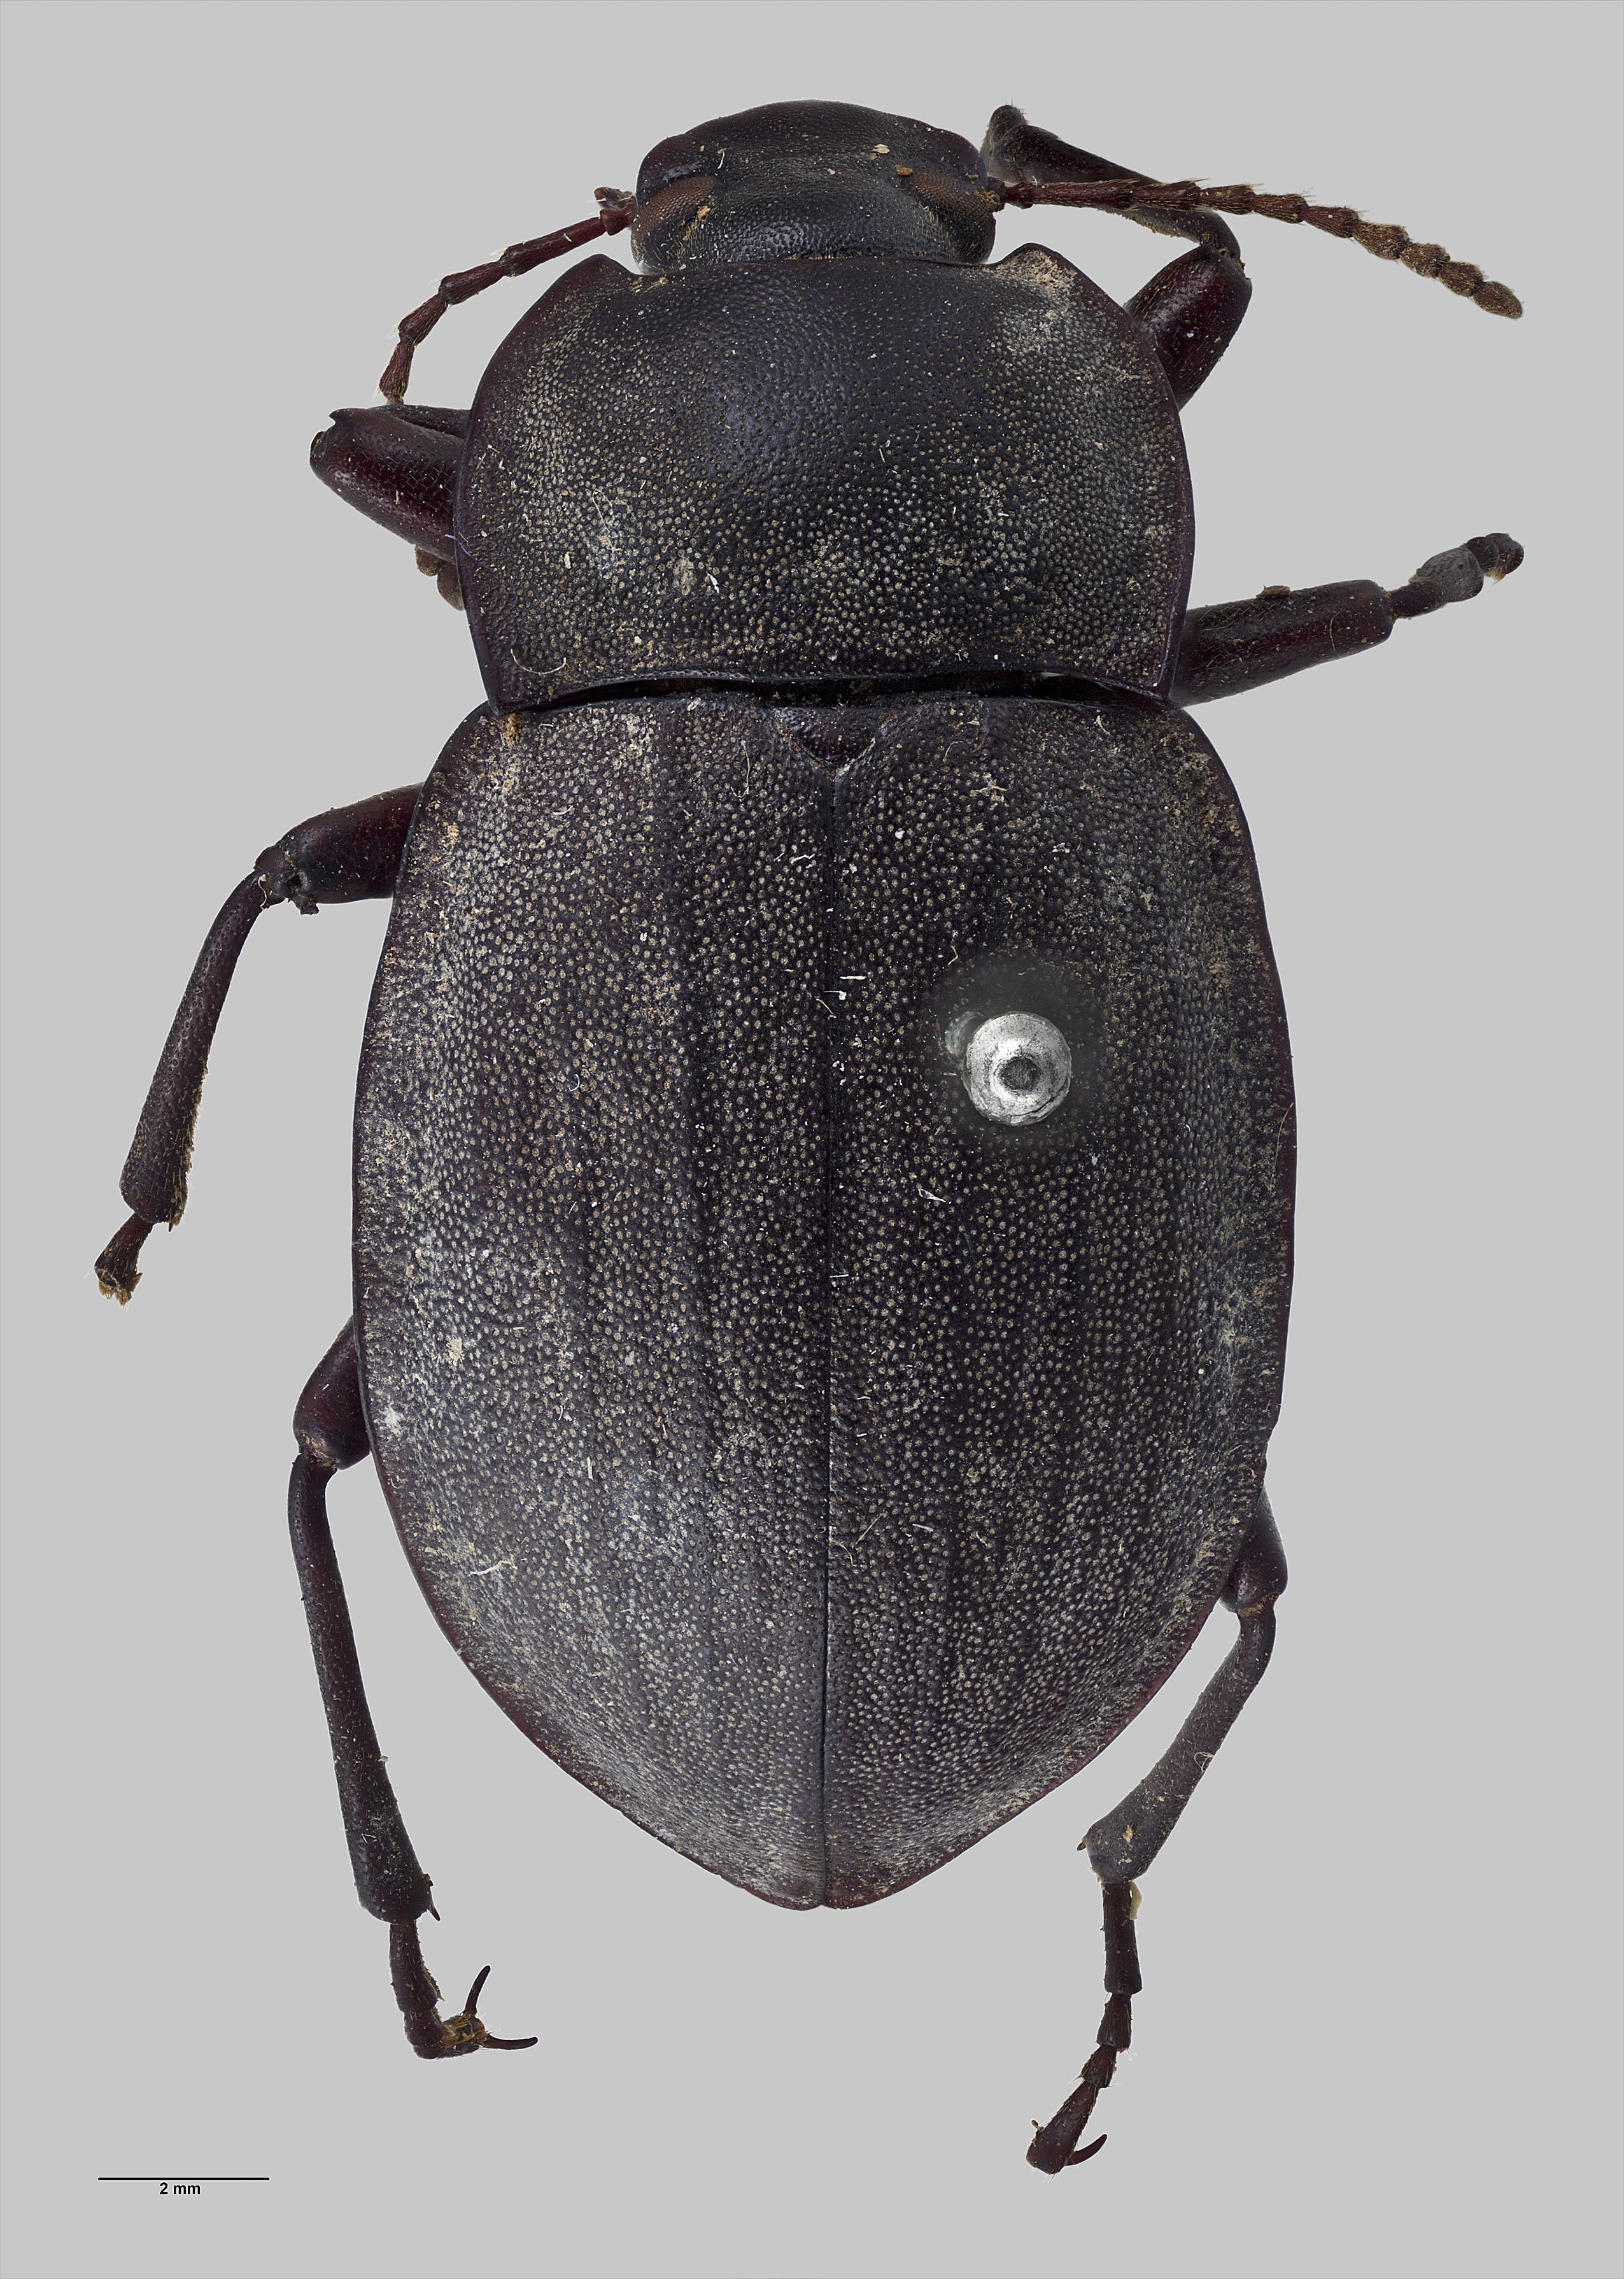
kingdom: Animalia
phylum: Arthropoda
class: Insecta
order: Coleoptera
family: Tenebrionidae
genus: Mimopeus
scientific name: Mimopeus
